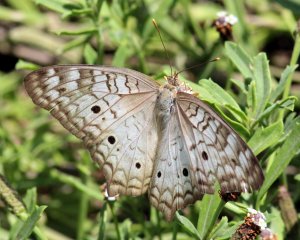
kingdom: Animalia
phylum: Arthropoda
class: Insecta
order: Lepidoptera
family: Nymphalidae
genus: Anartia
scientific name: Anartia jatrophae
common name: White Peacock
